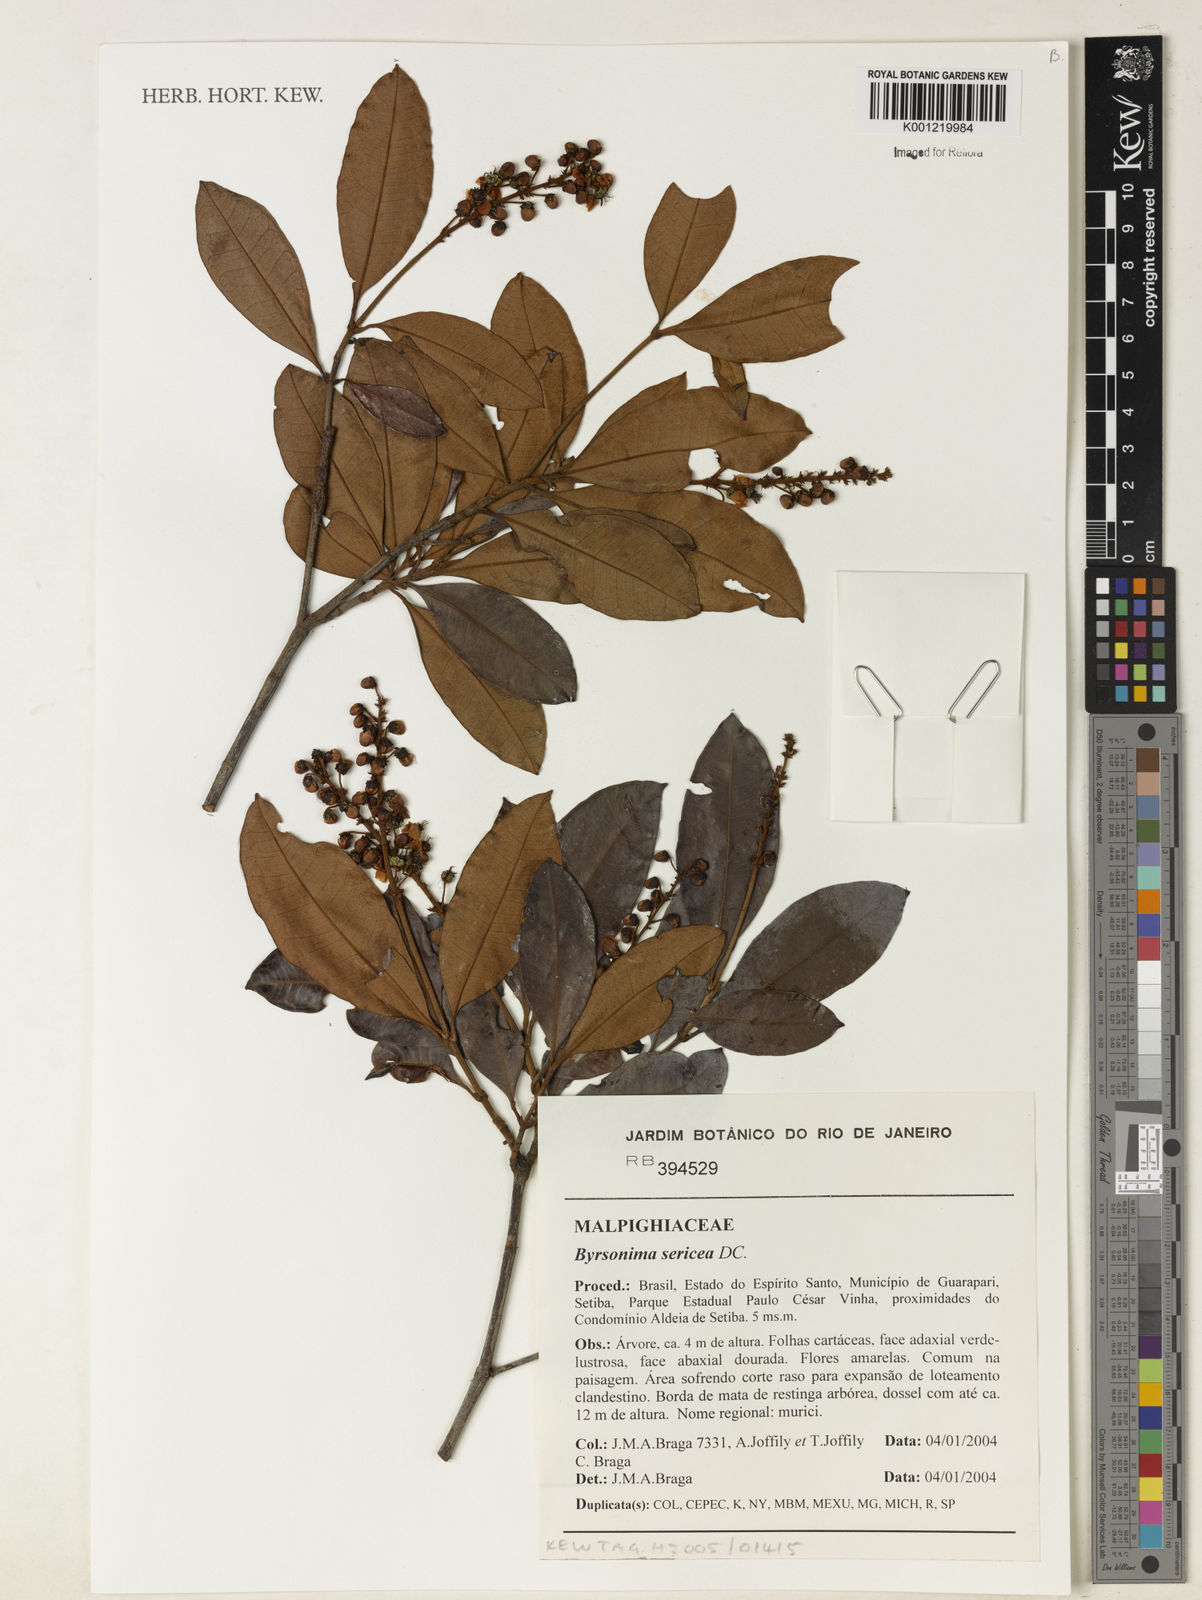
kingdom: Plantae
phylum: Tracheophyta
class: Magnoliopsida
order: Malpighiales
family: Malpighiaceae
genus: Byrsonima
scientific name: Byrsonima sericea
